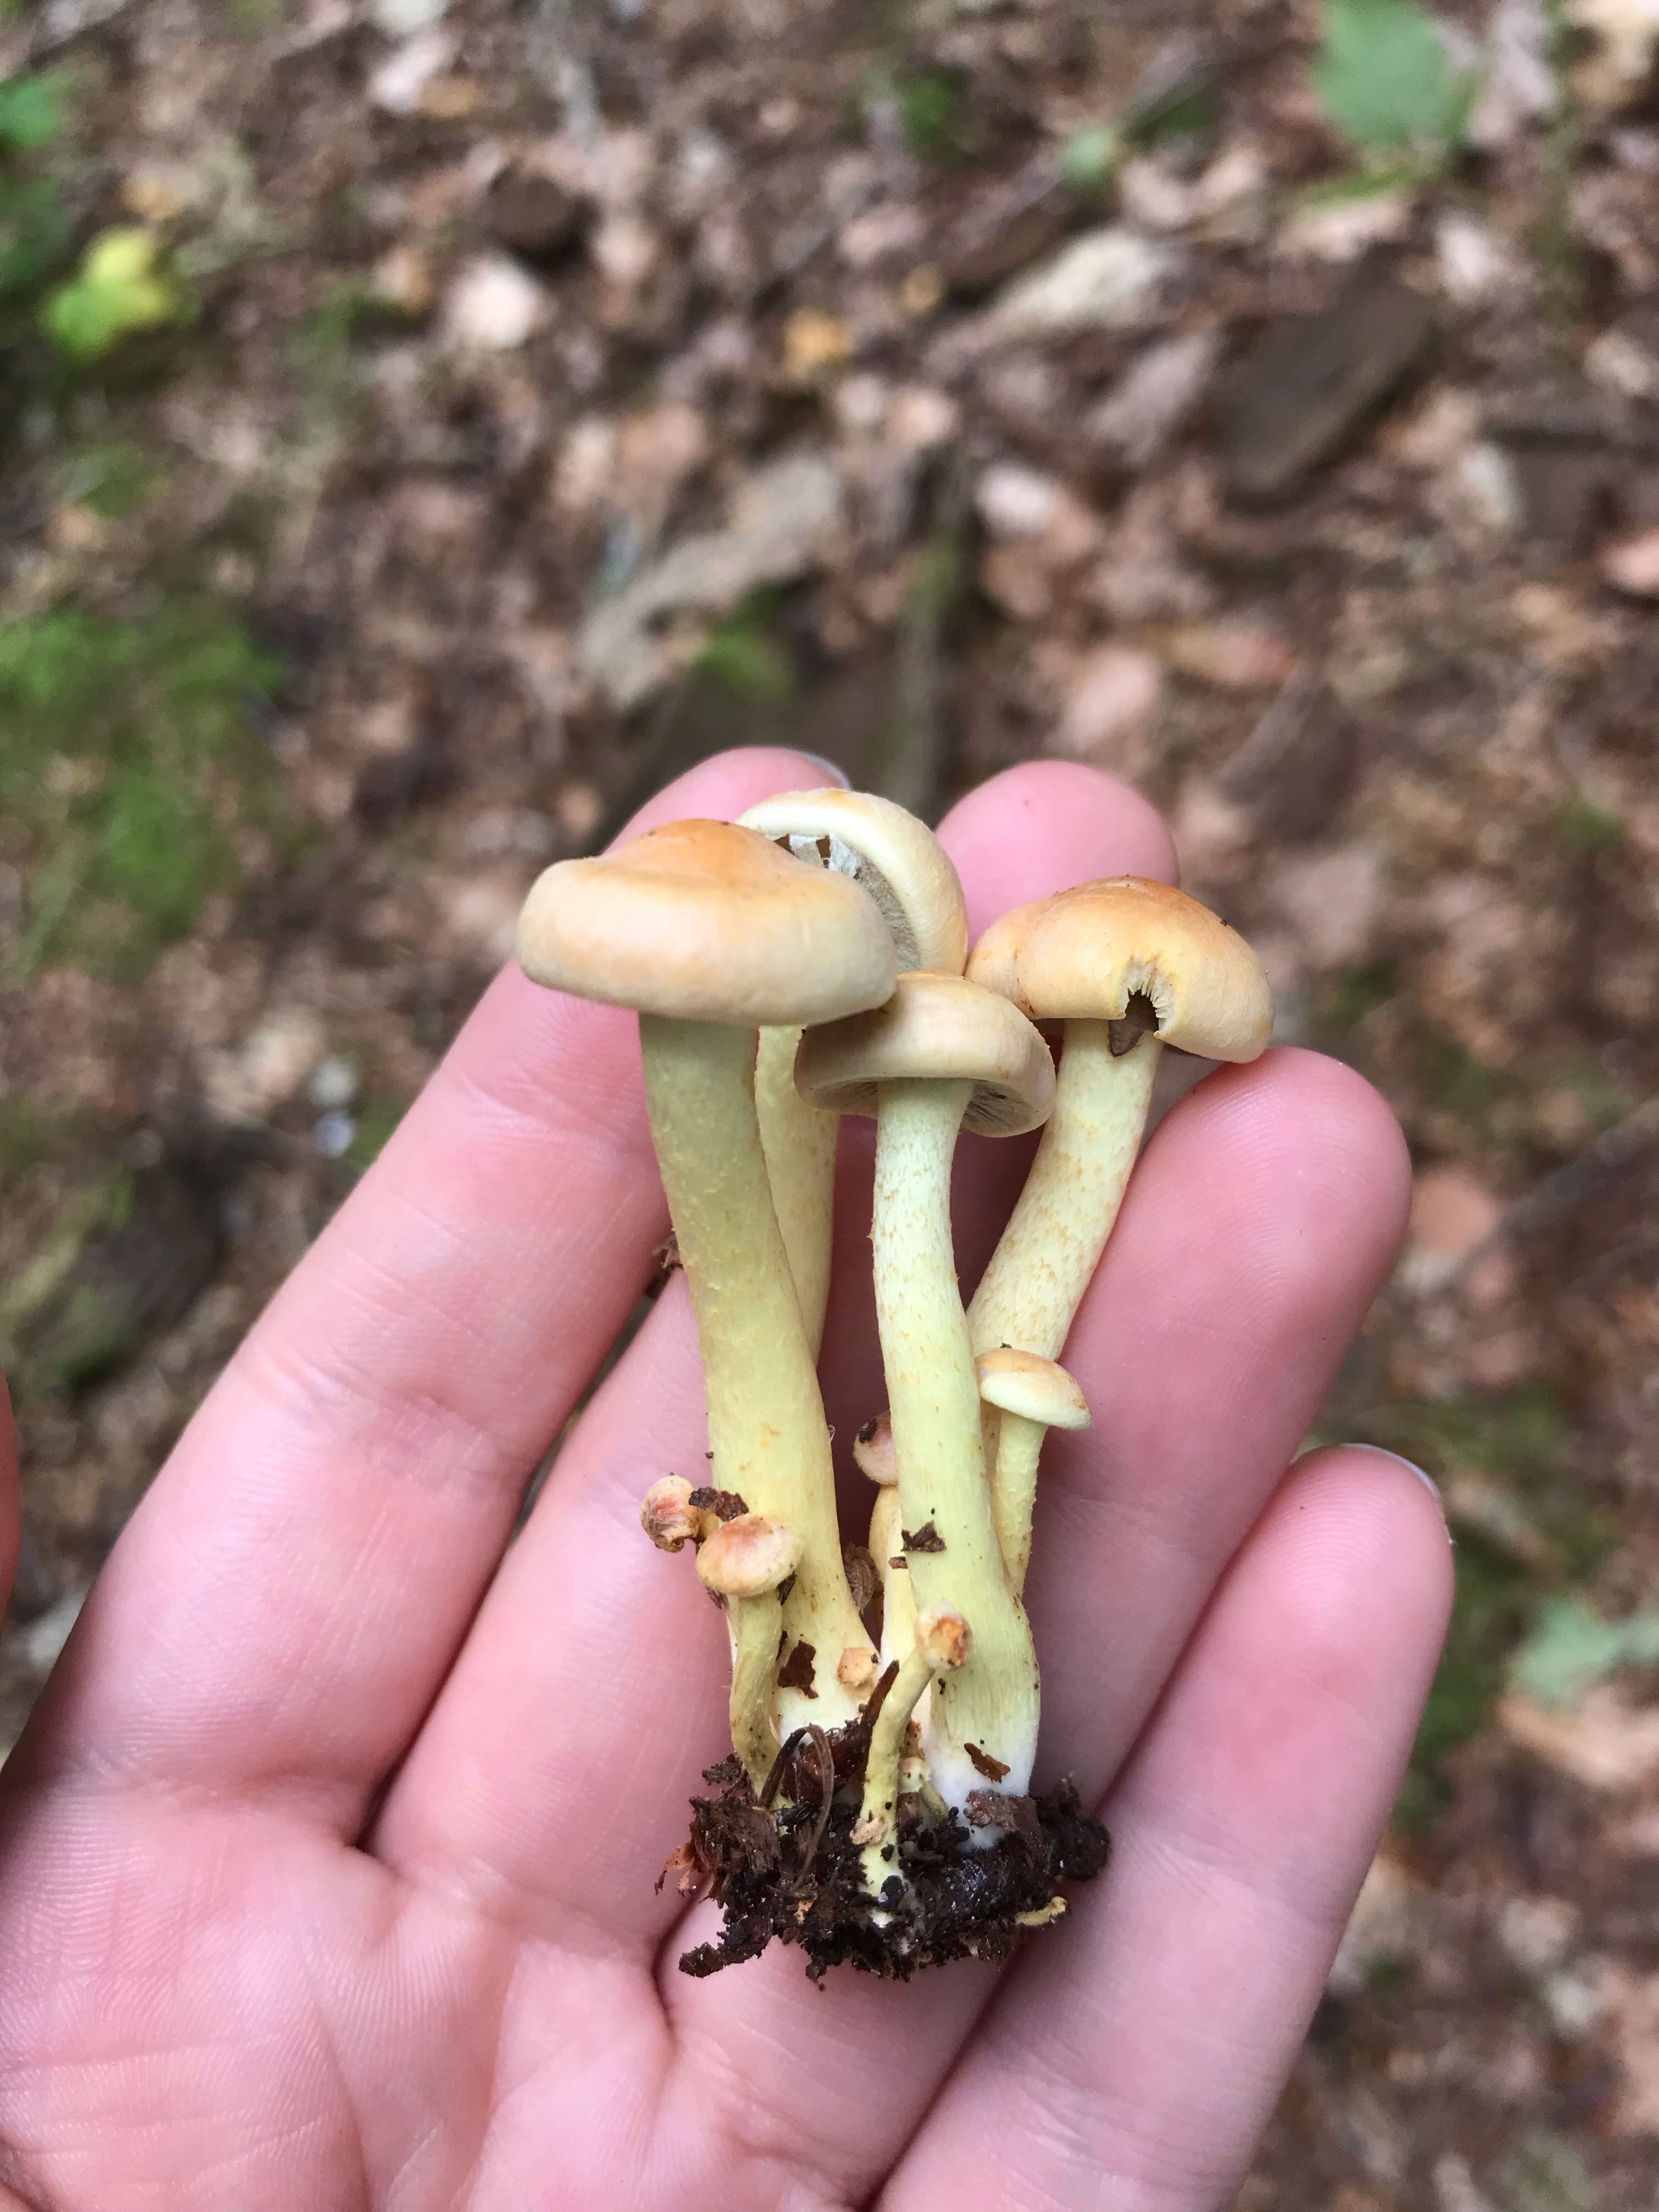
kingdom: Fungi
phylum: Basidiomycota
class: Agaricomycetes
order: Agaricales
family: Strophariaceae
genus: Hypholoma
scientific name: Hypholoma fasciculare
